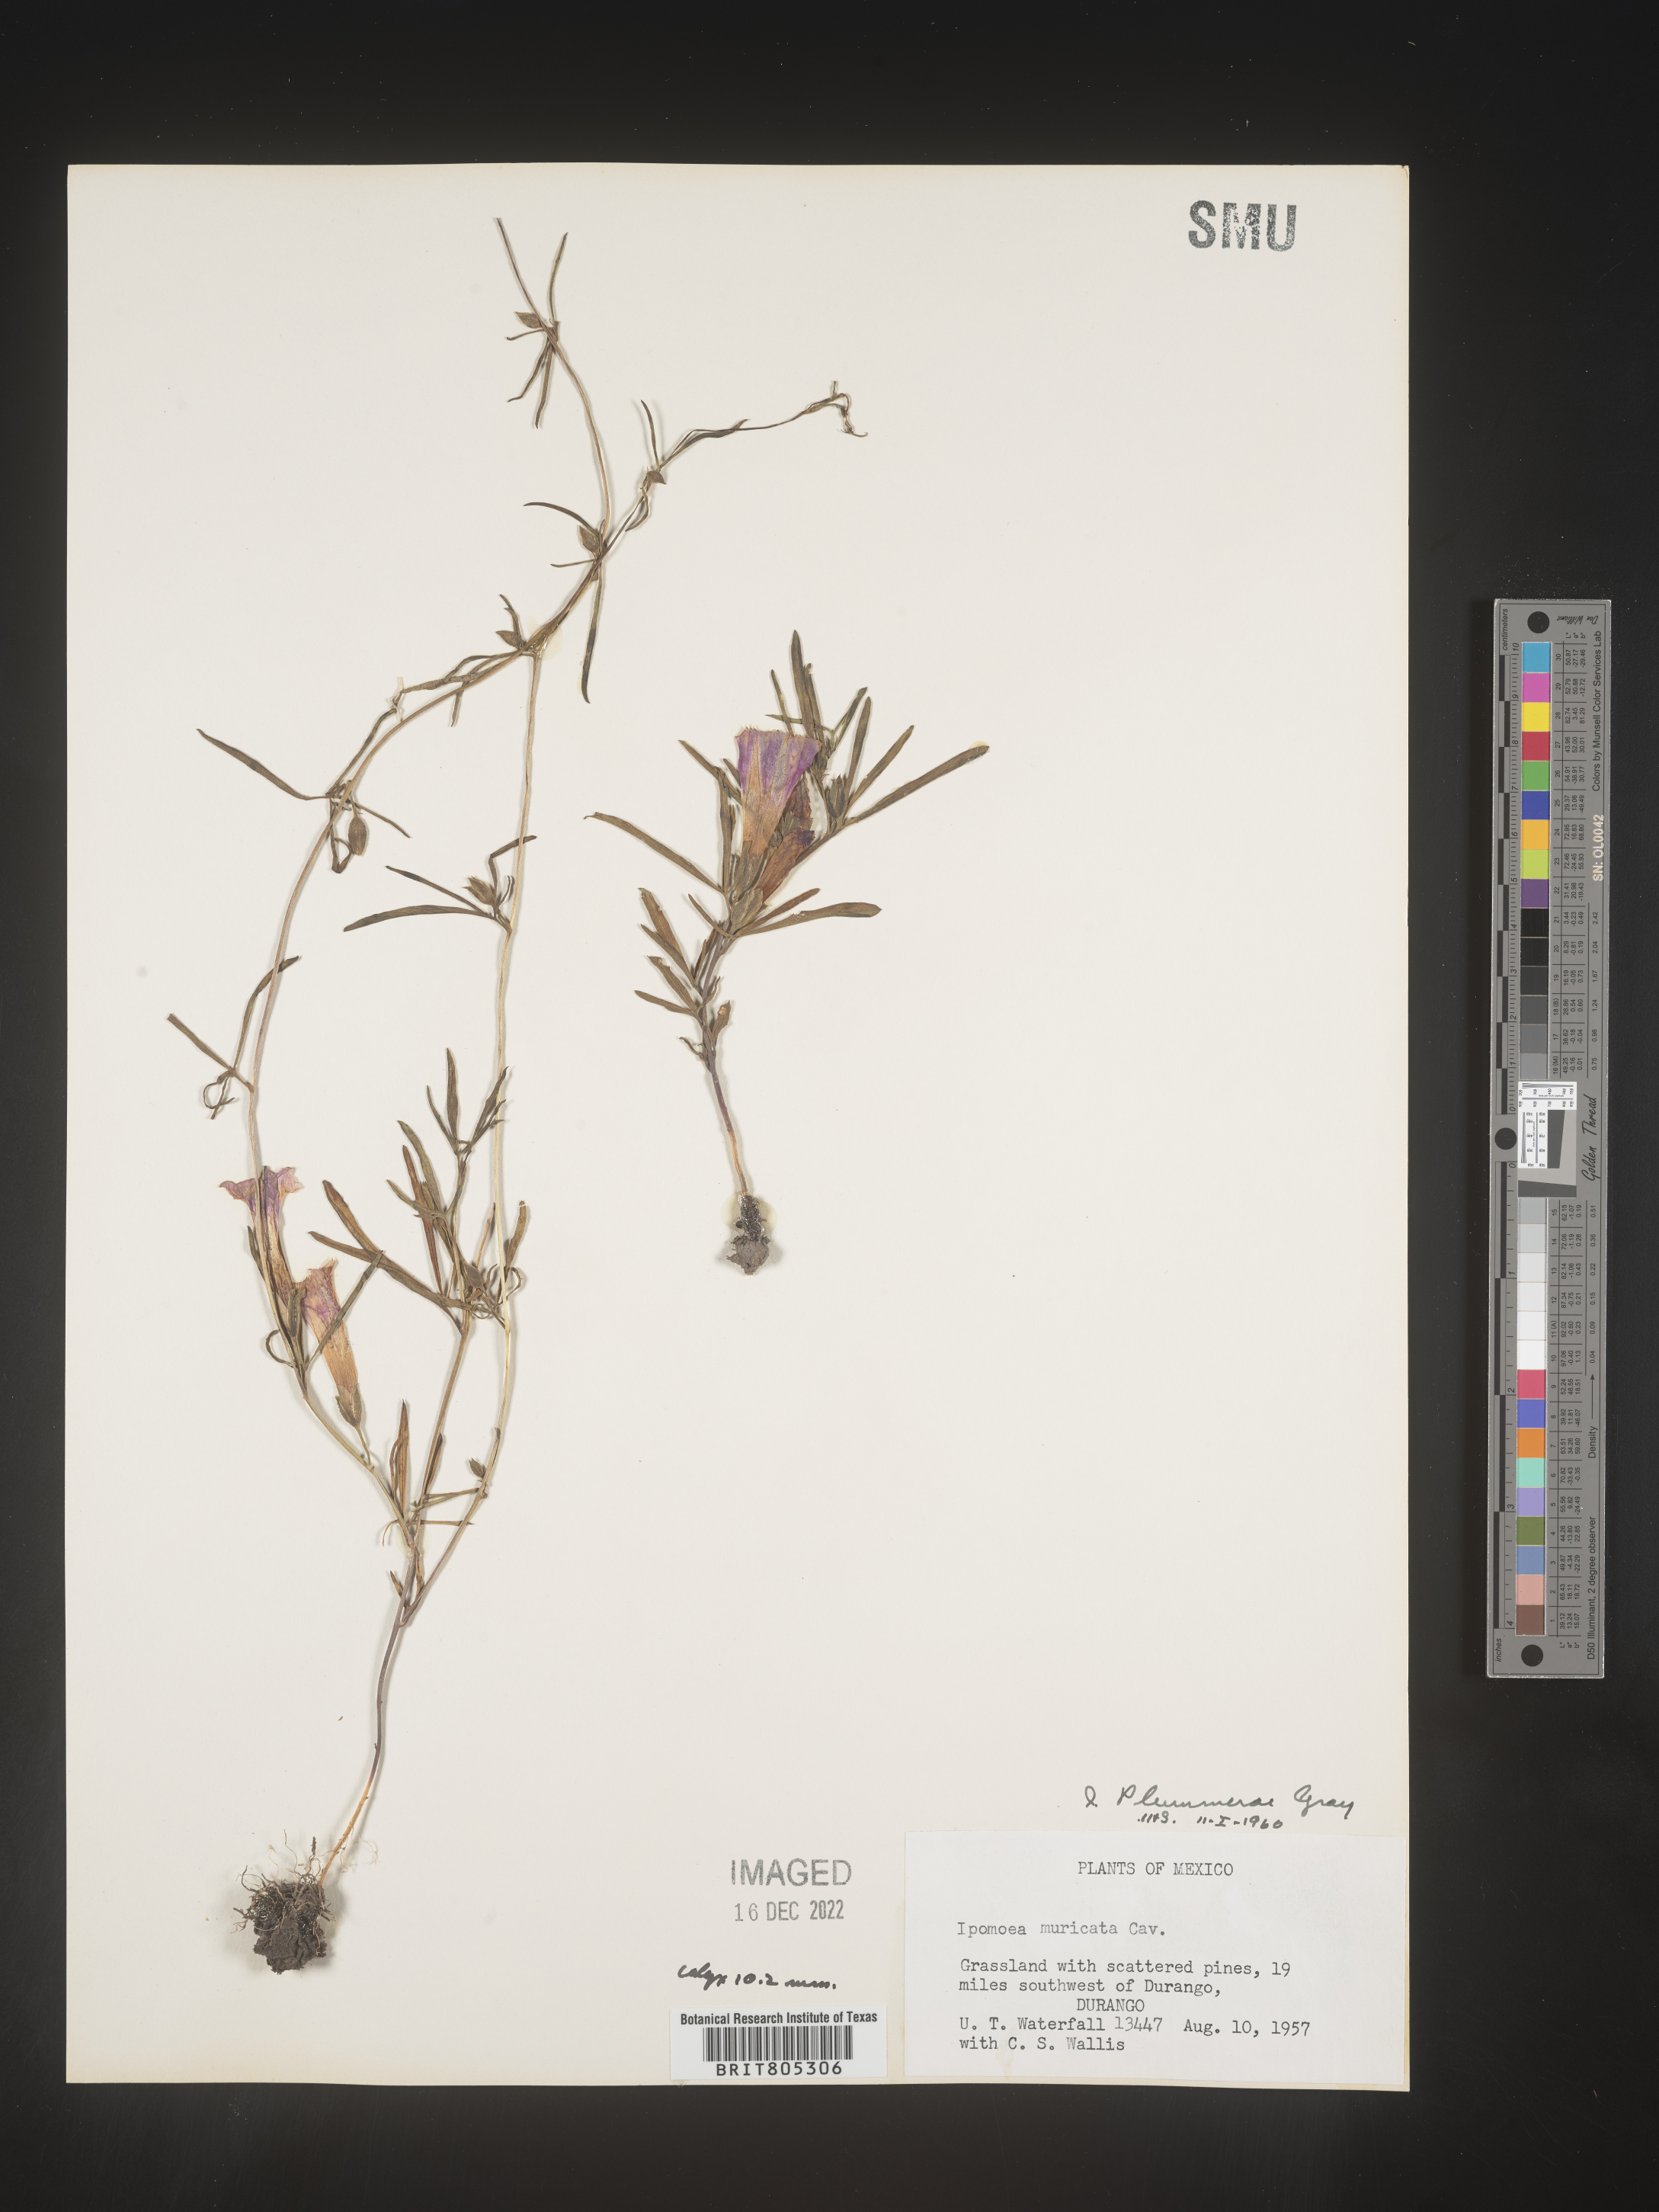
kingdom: Plantae
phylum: Tracheophyta
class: Magnoliopsida
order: Solanales
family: Convolvulaceae
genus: Ipomoea
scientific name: Ipomoea
